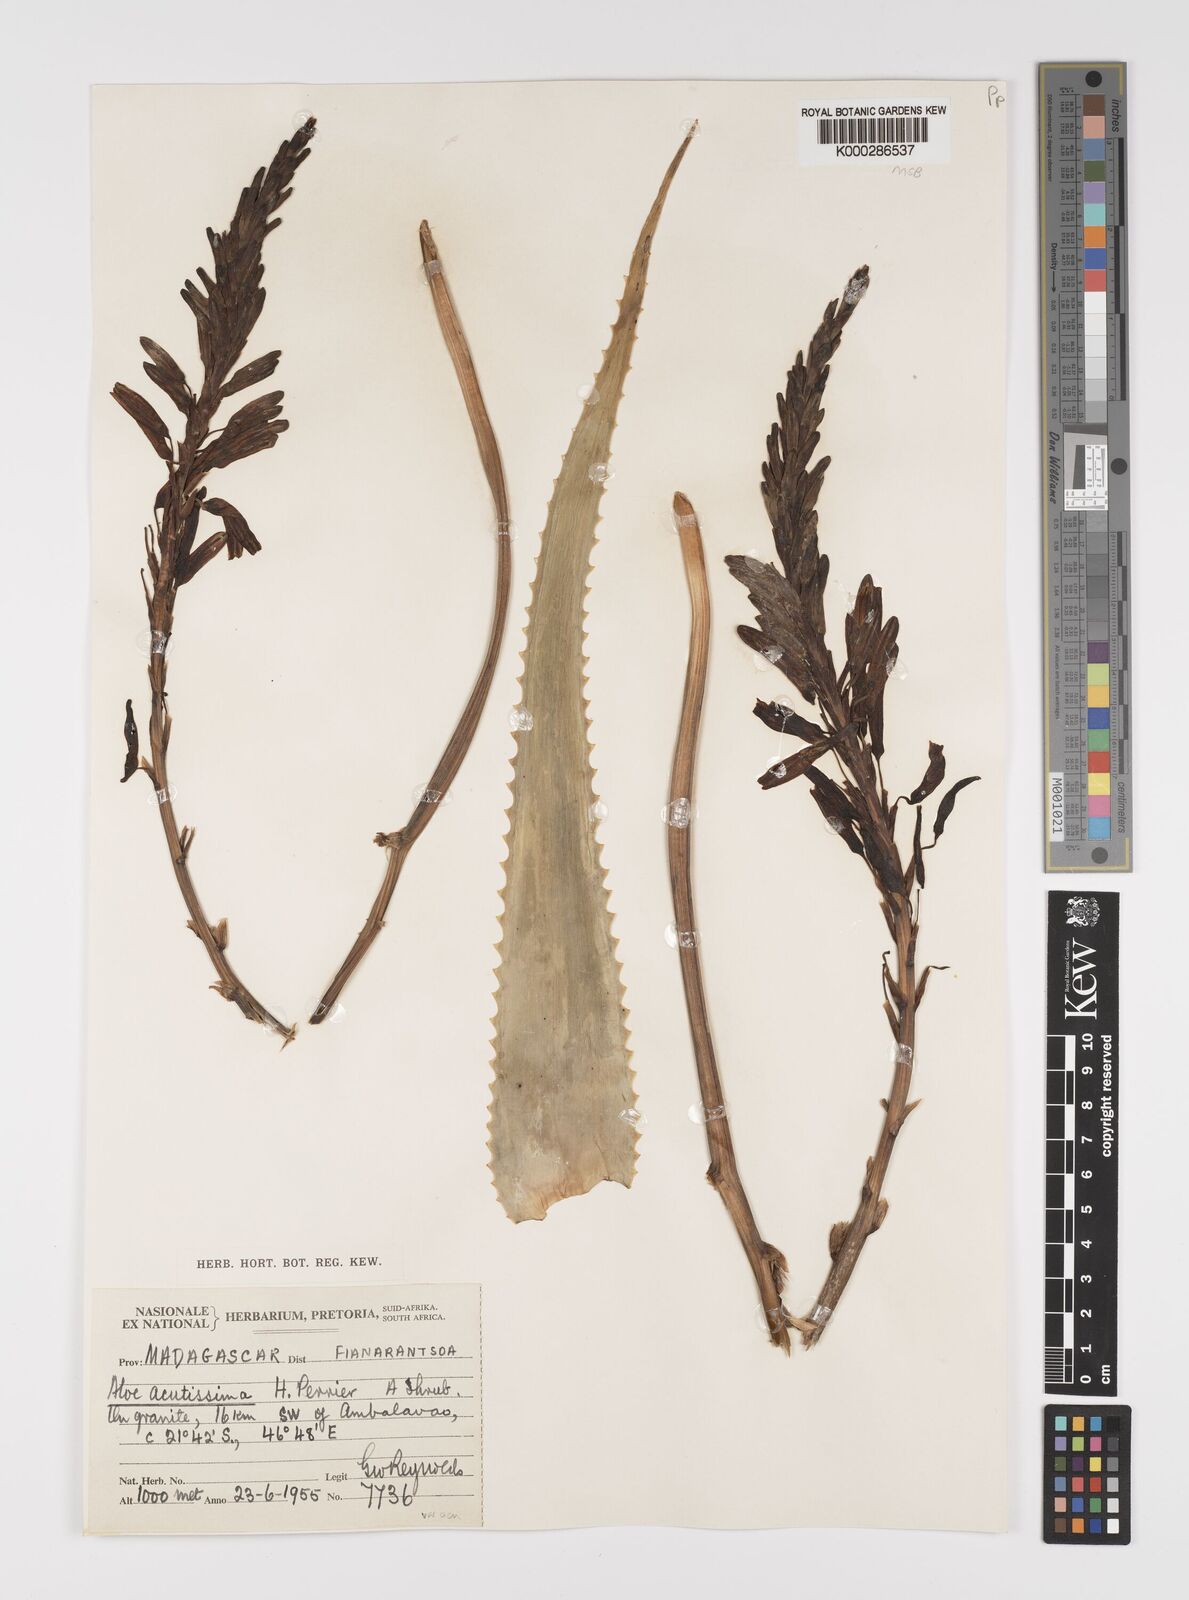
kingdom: Plantae
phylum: Tracheophyta
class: Liliopsida
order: Asparagales
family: Asphodelaceae
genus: Aloe
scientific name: Aloe
